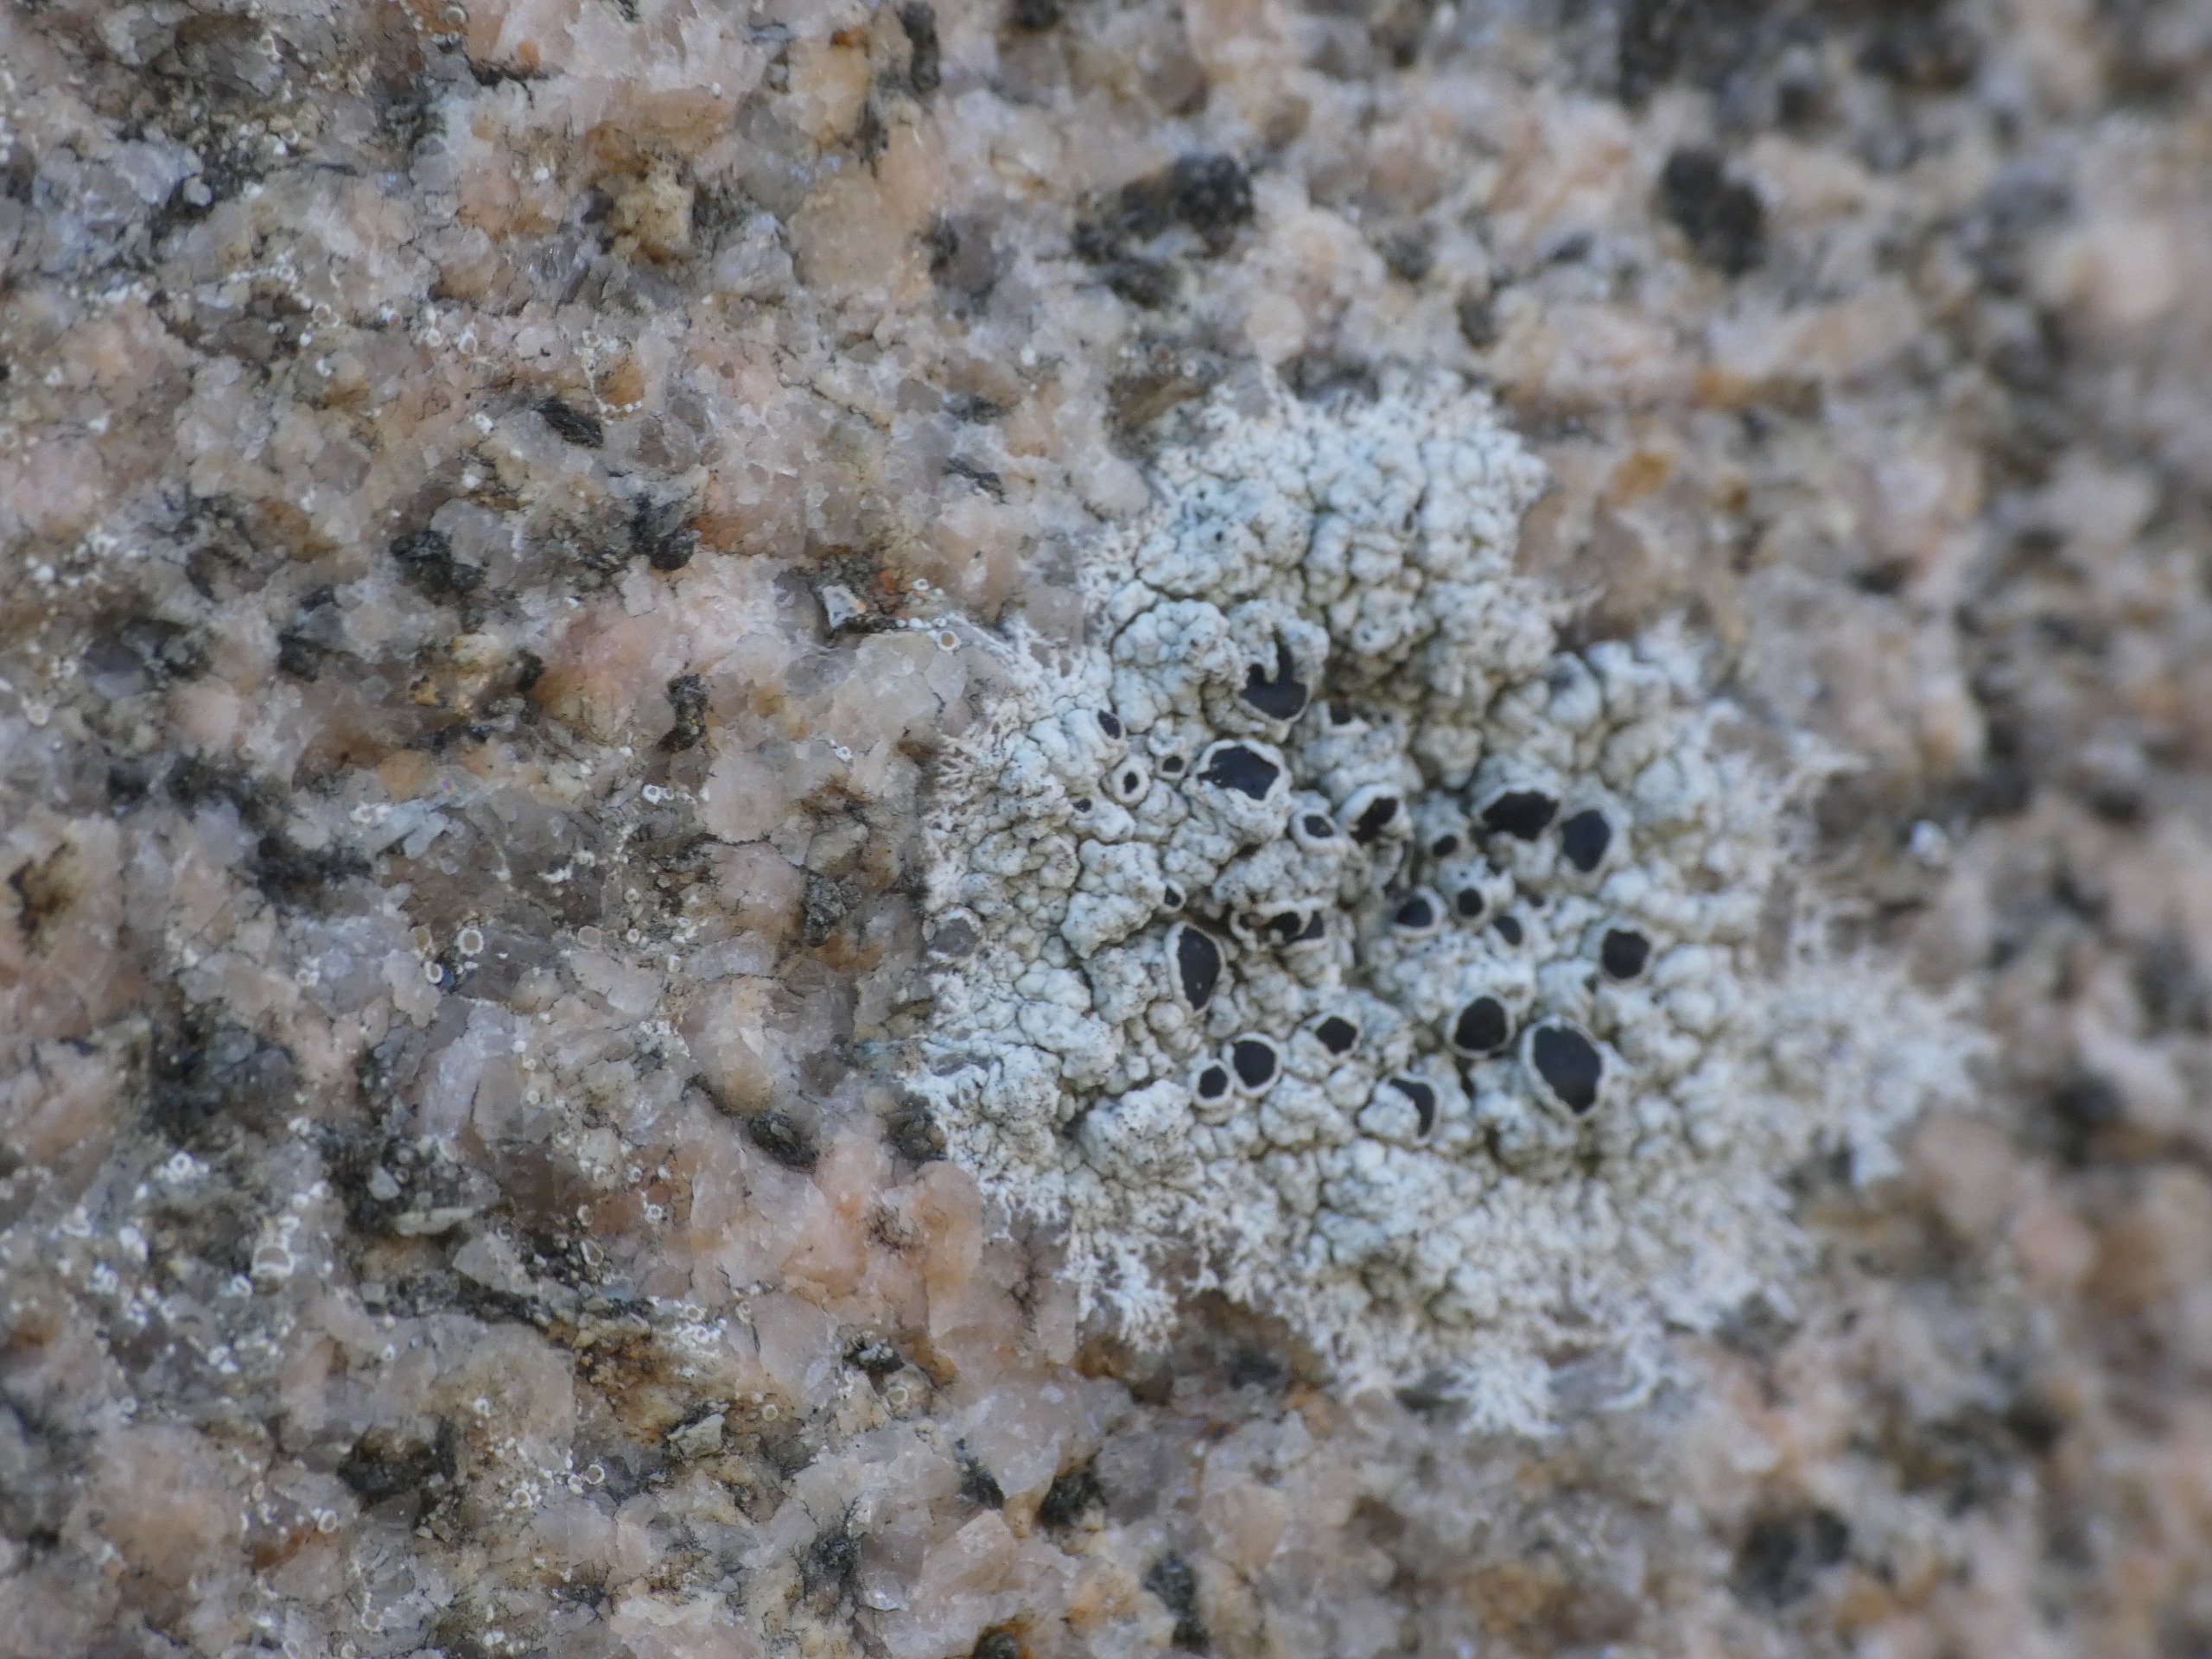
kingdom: Fungi
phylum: Ascomycota
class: Lecanoromycetes
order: Lecanorales
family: Tephromelataceae
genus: Tephromela
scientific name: Tephromela atra
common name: Sortfrugtet kantskivelav
